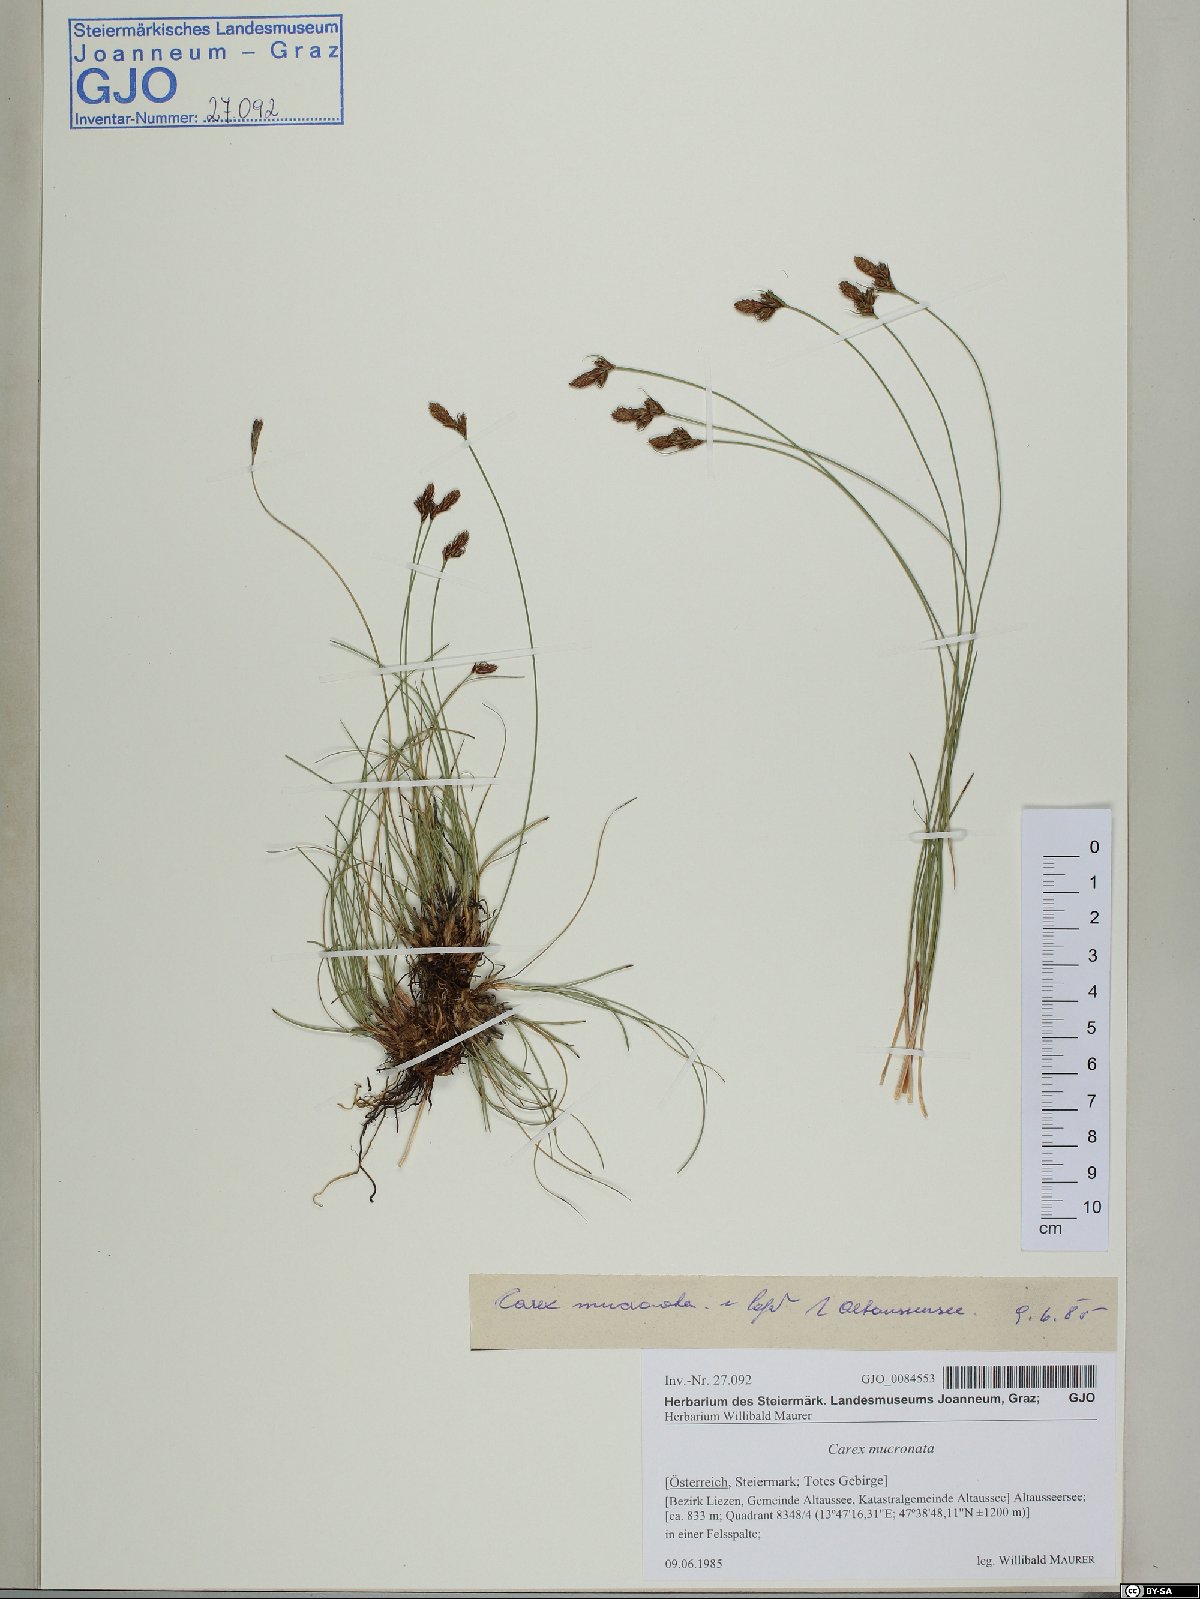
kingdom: Plantae
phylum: Tracheophyta
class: Liliopsida
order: Poales
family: Cyperaceae
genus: Carex
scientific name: Carex mucronata
